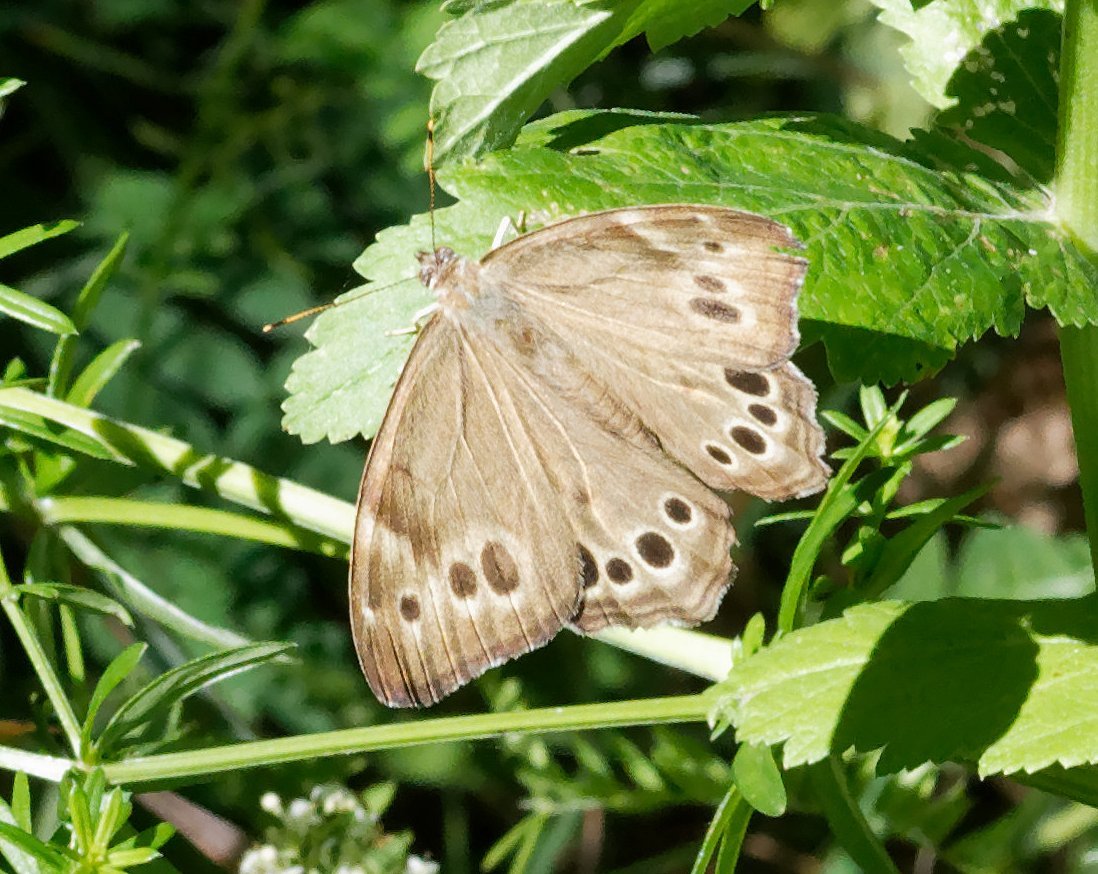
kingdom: Animalia
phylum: Arthropoda
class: Insecta
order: Lepidoptera
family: Nymphalidae
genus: Lethe
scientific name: Lethe anthedon
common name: Northern Pearly-Eye
